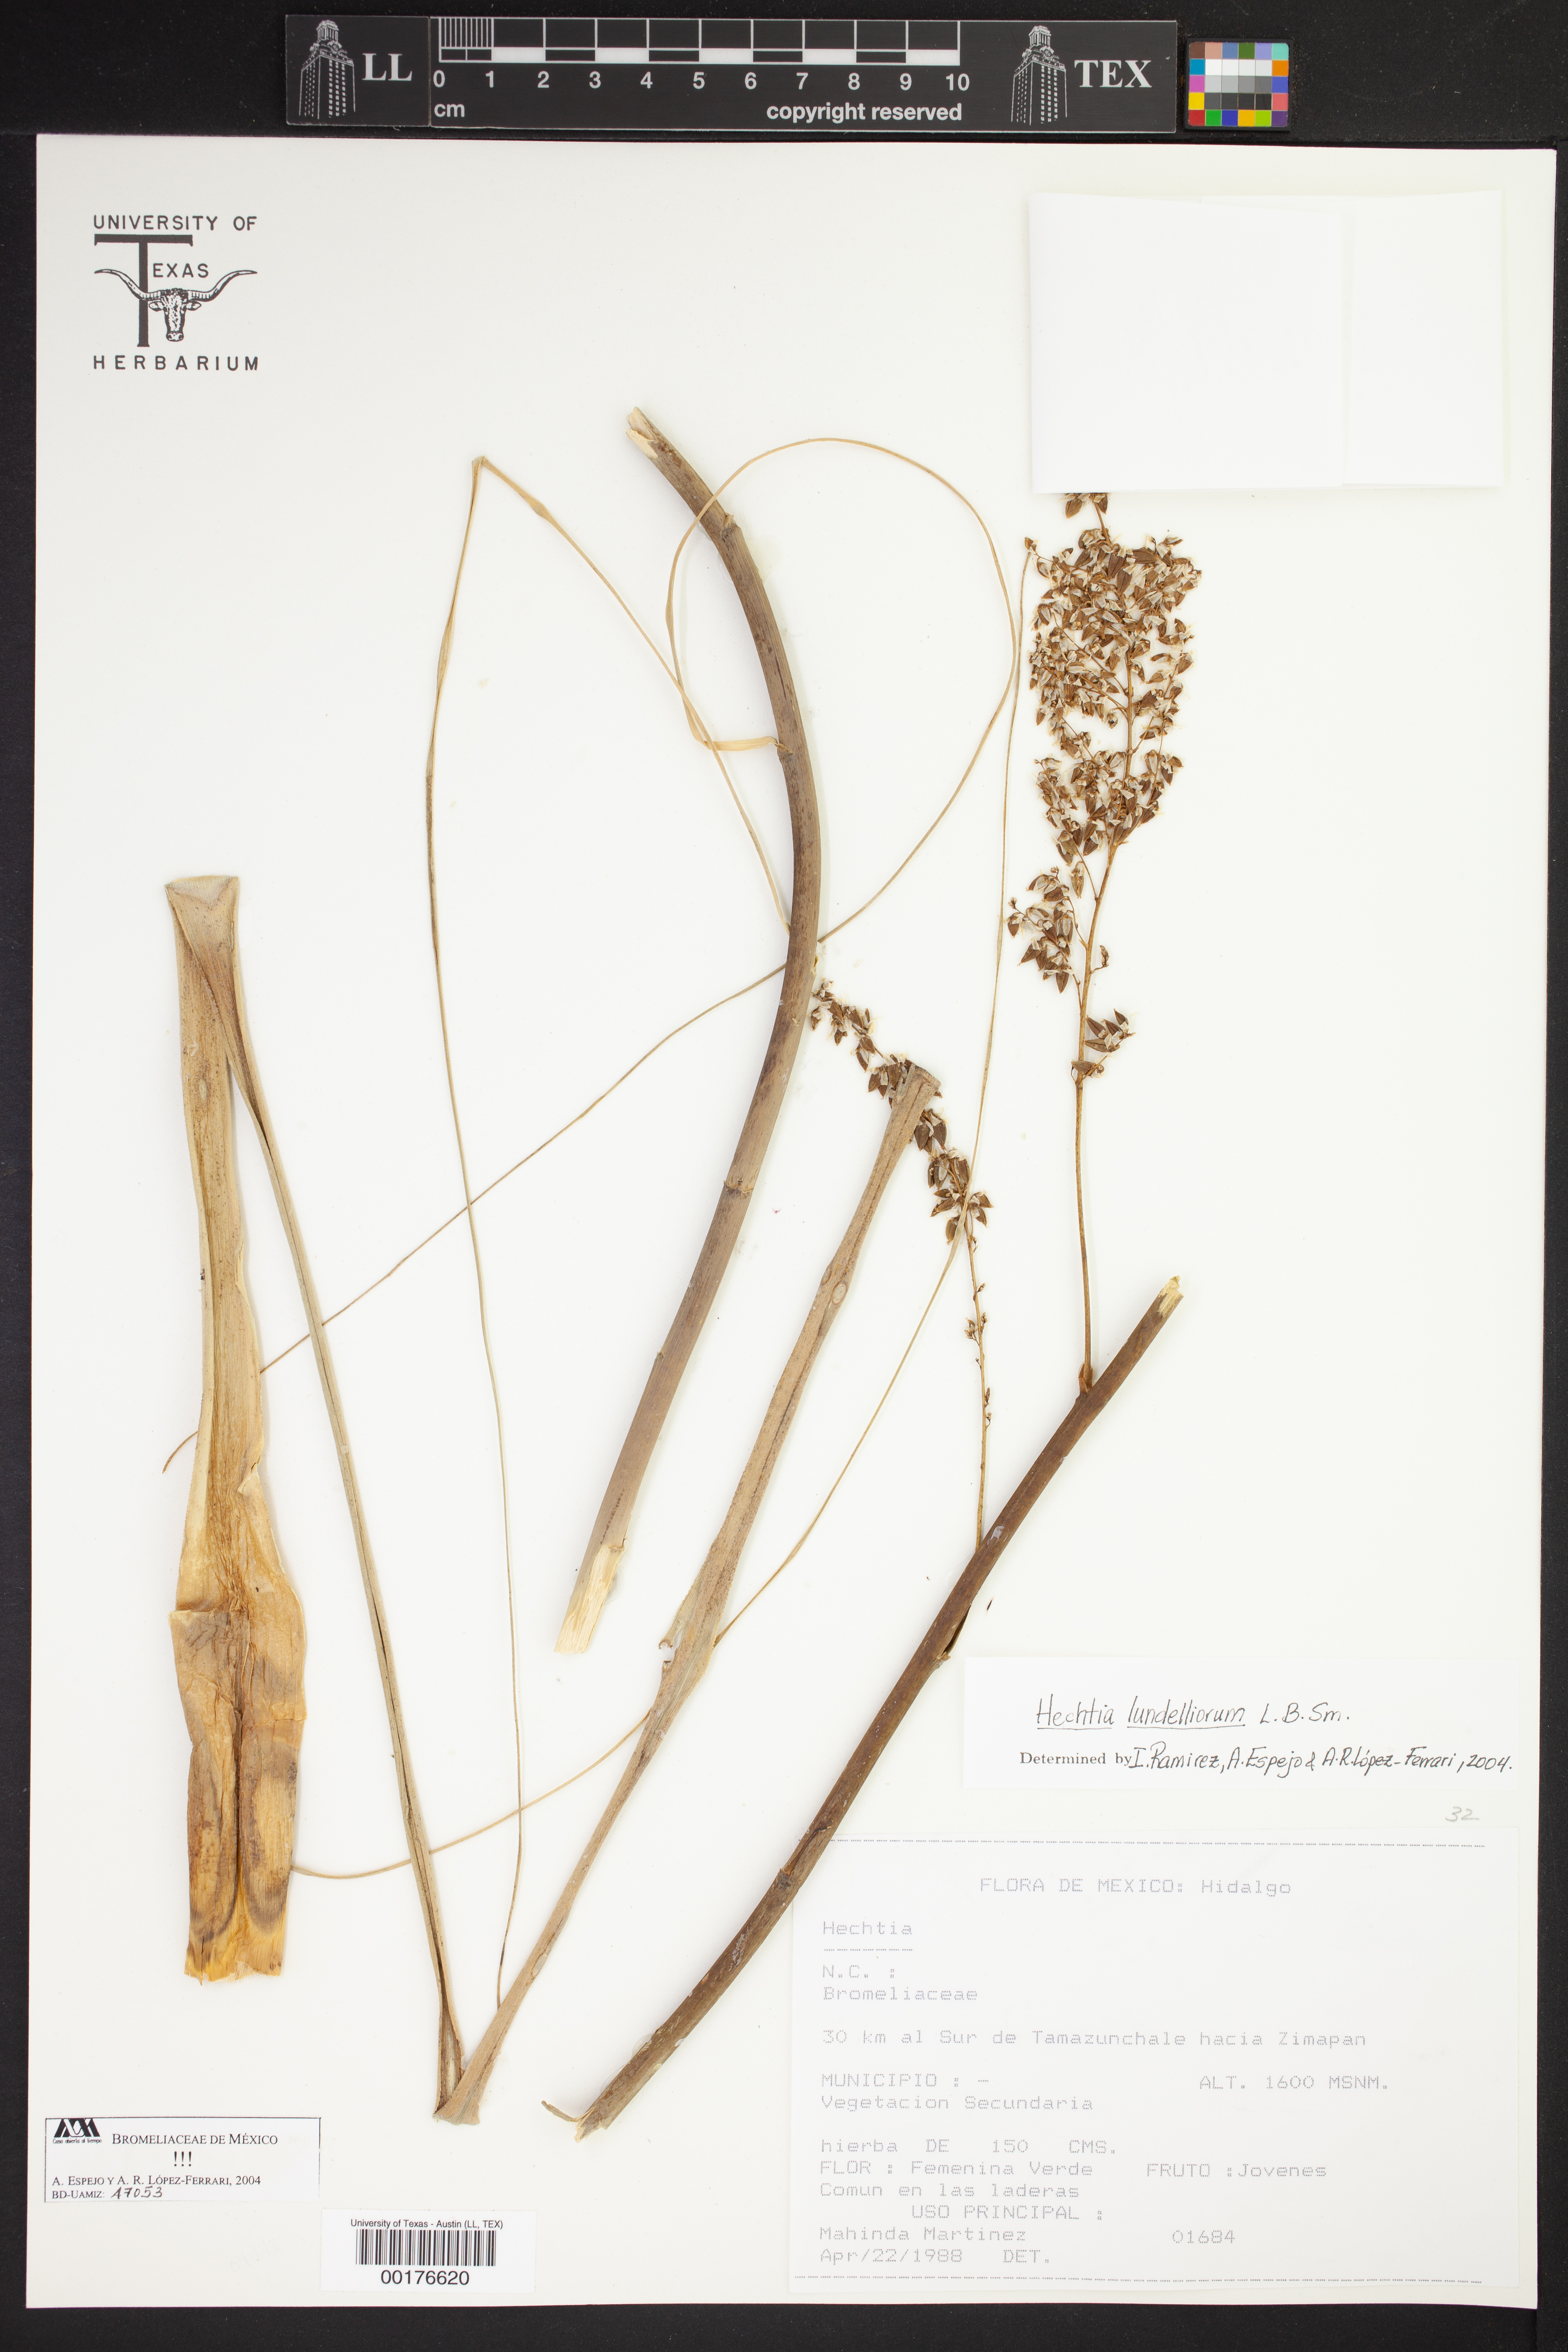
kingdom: Plantae
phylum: Tracheophyta
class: Liliopsida
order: Poales
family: Bromeliaceae
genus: Hechtia
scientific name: Hechtia
